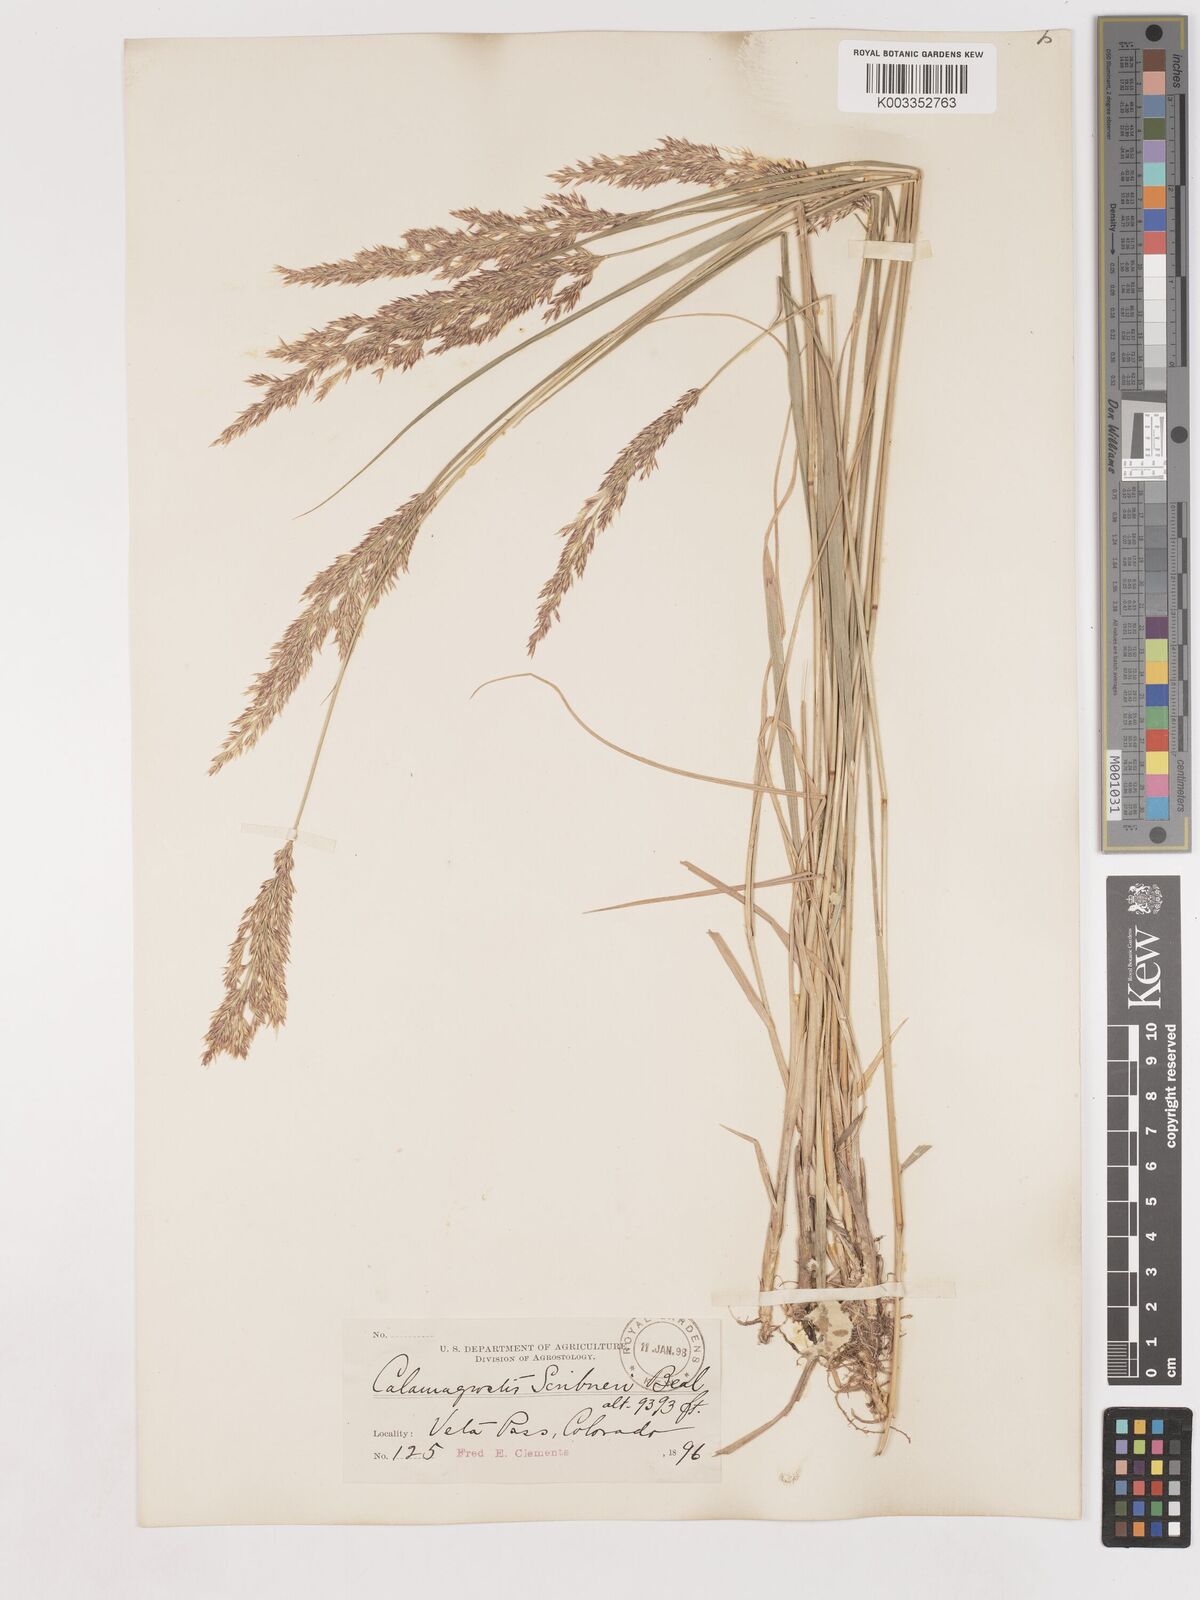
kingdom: Plantae
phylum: Tracheophyta
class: Liliopsida
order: Poales
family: Poaceae
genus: Calamagrostis
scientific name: Calamagrostis canadensis
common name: Canada bluejoint
